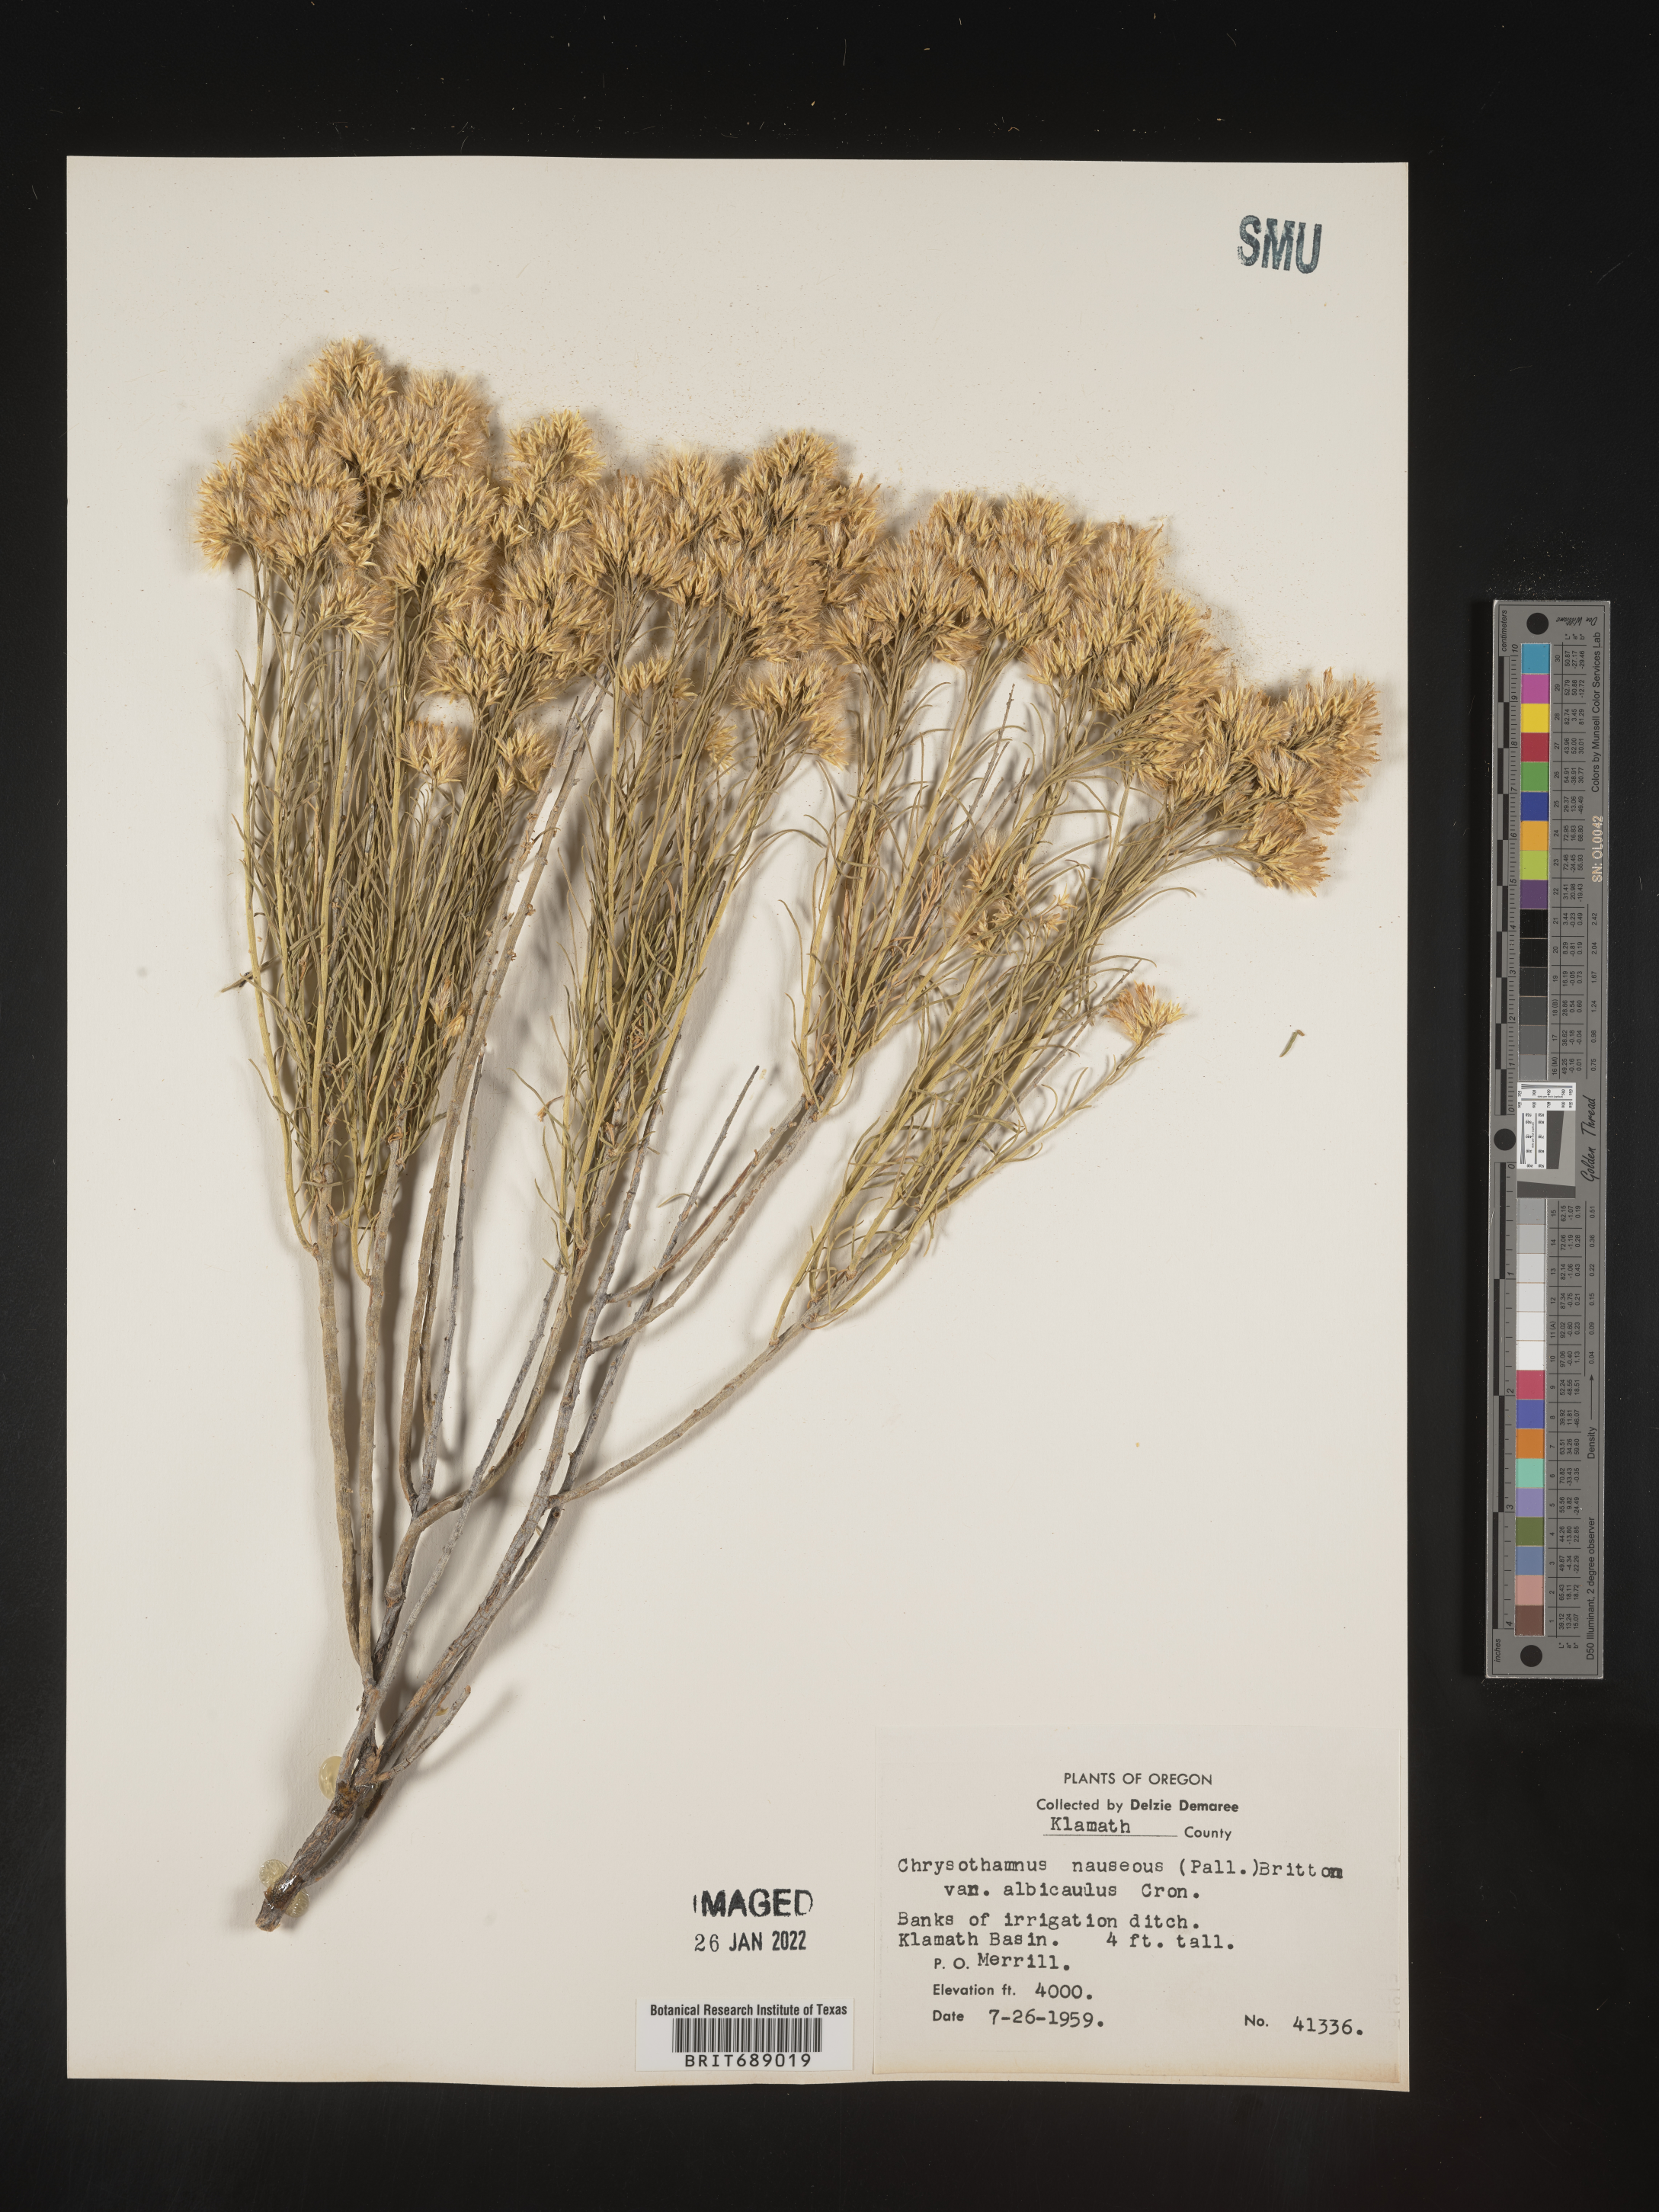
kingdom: Plantae
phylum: Tracheophyta
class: Magnoliopsida
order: Asterales
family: Asteraceae
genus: Ericameria
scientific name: Ericameria nauseosa
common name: Rubber rabbitbrush
